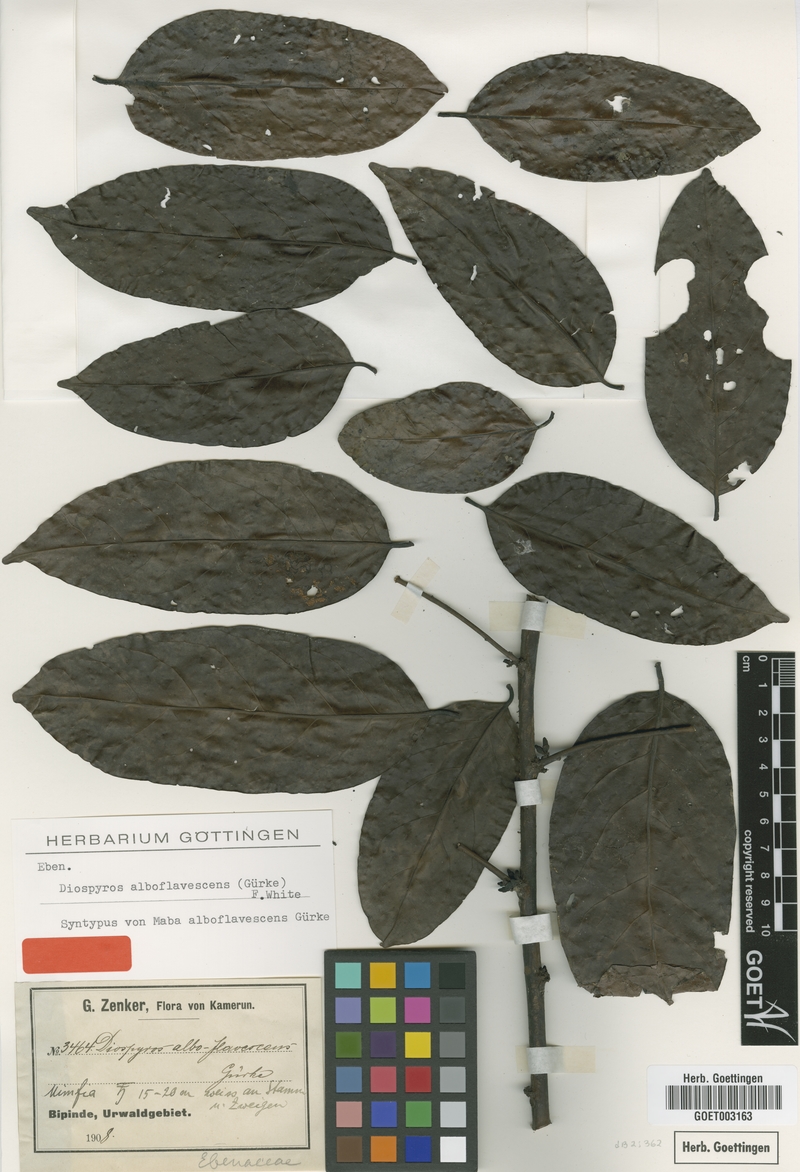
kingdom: Plantae
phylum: Tracheophyta
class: Magnoliopsida
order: Ericales
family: Ebenaceae
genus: Diospyros
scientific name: Diospyros alboflavescens
